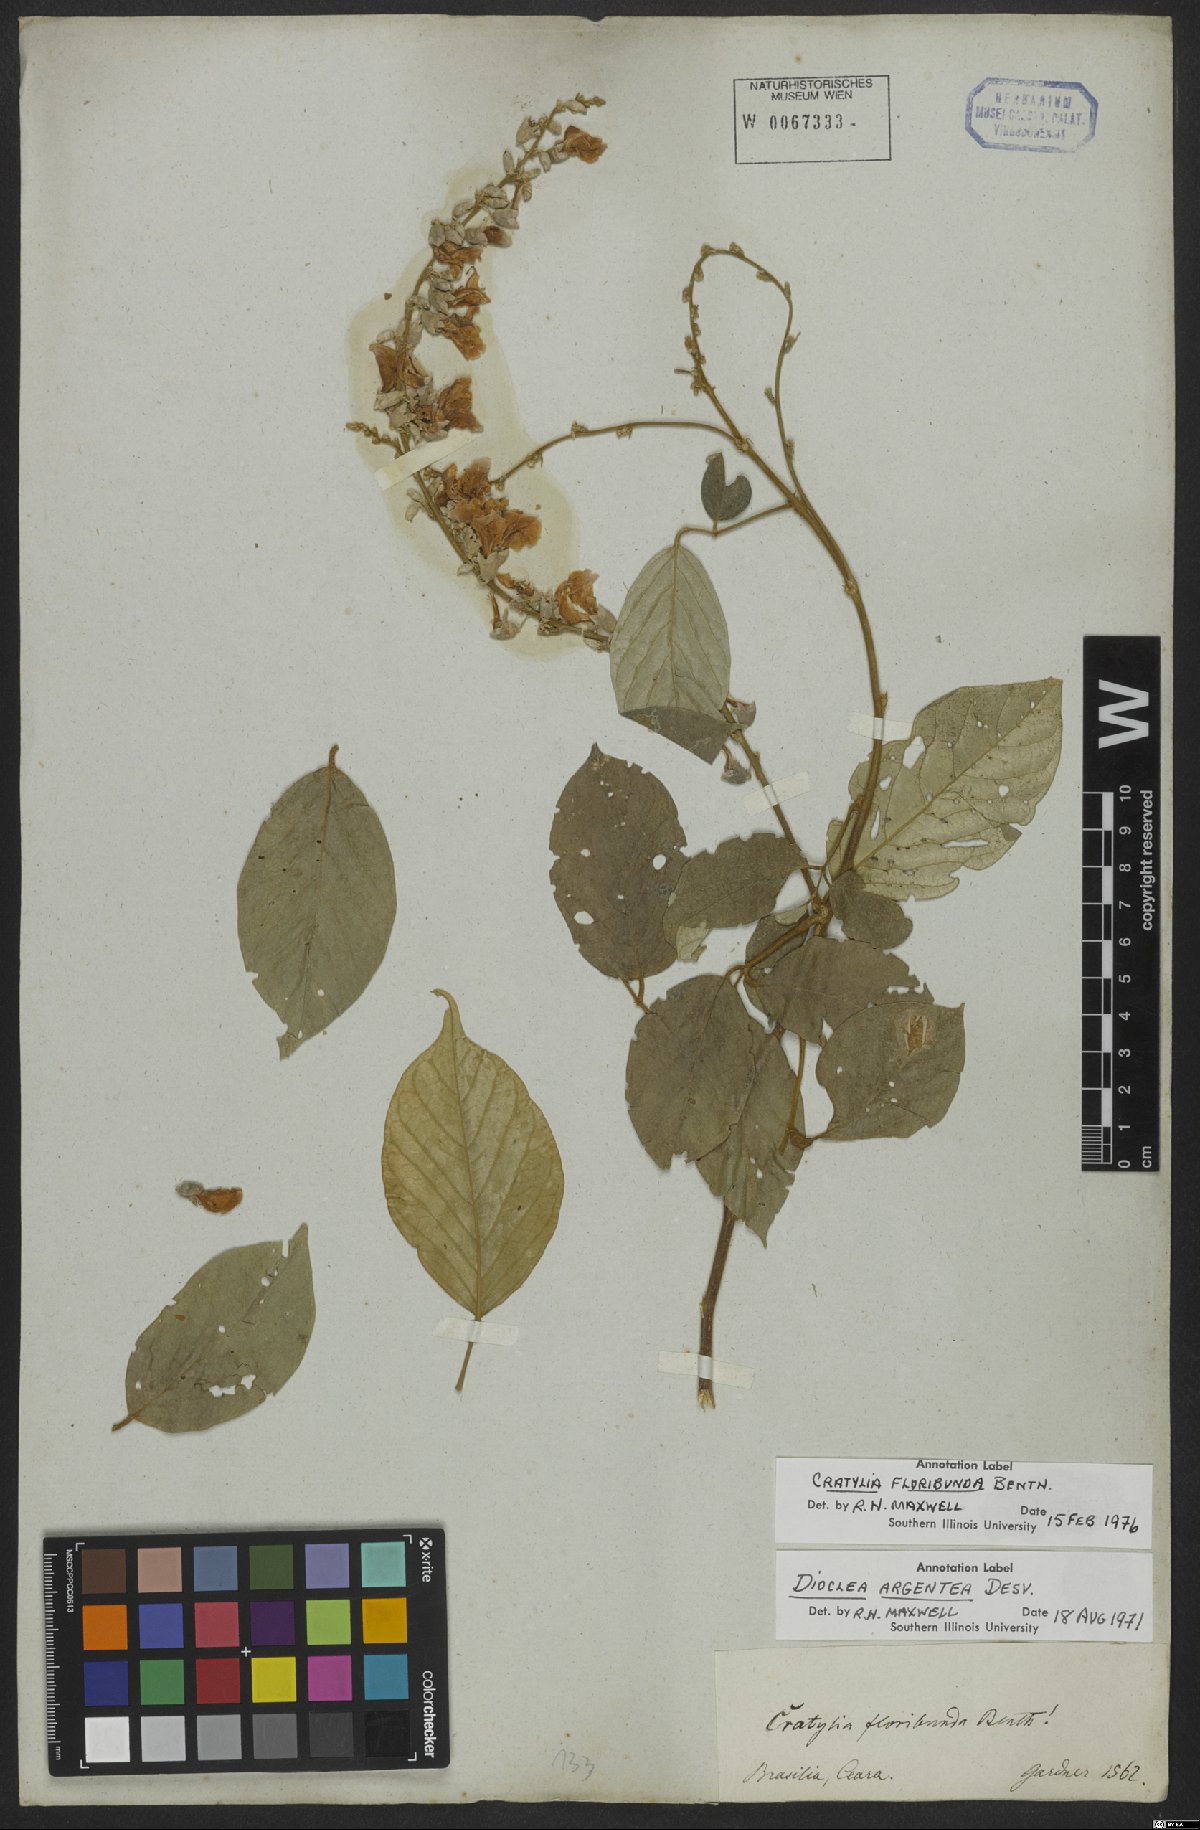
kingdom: Plantae
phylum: Tracheophyta
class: Magnoliopsida
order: Fabales
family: Fabaceae
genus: Cratylia
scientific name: Cratylia argentea
